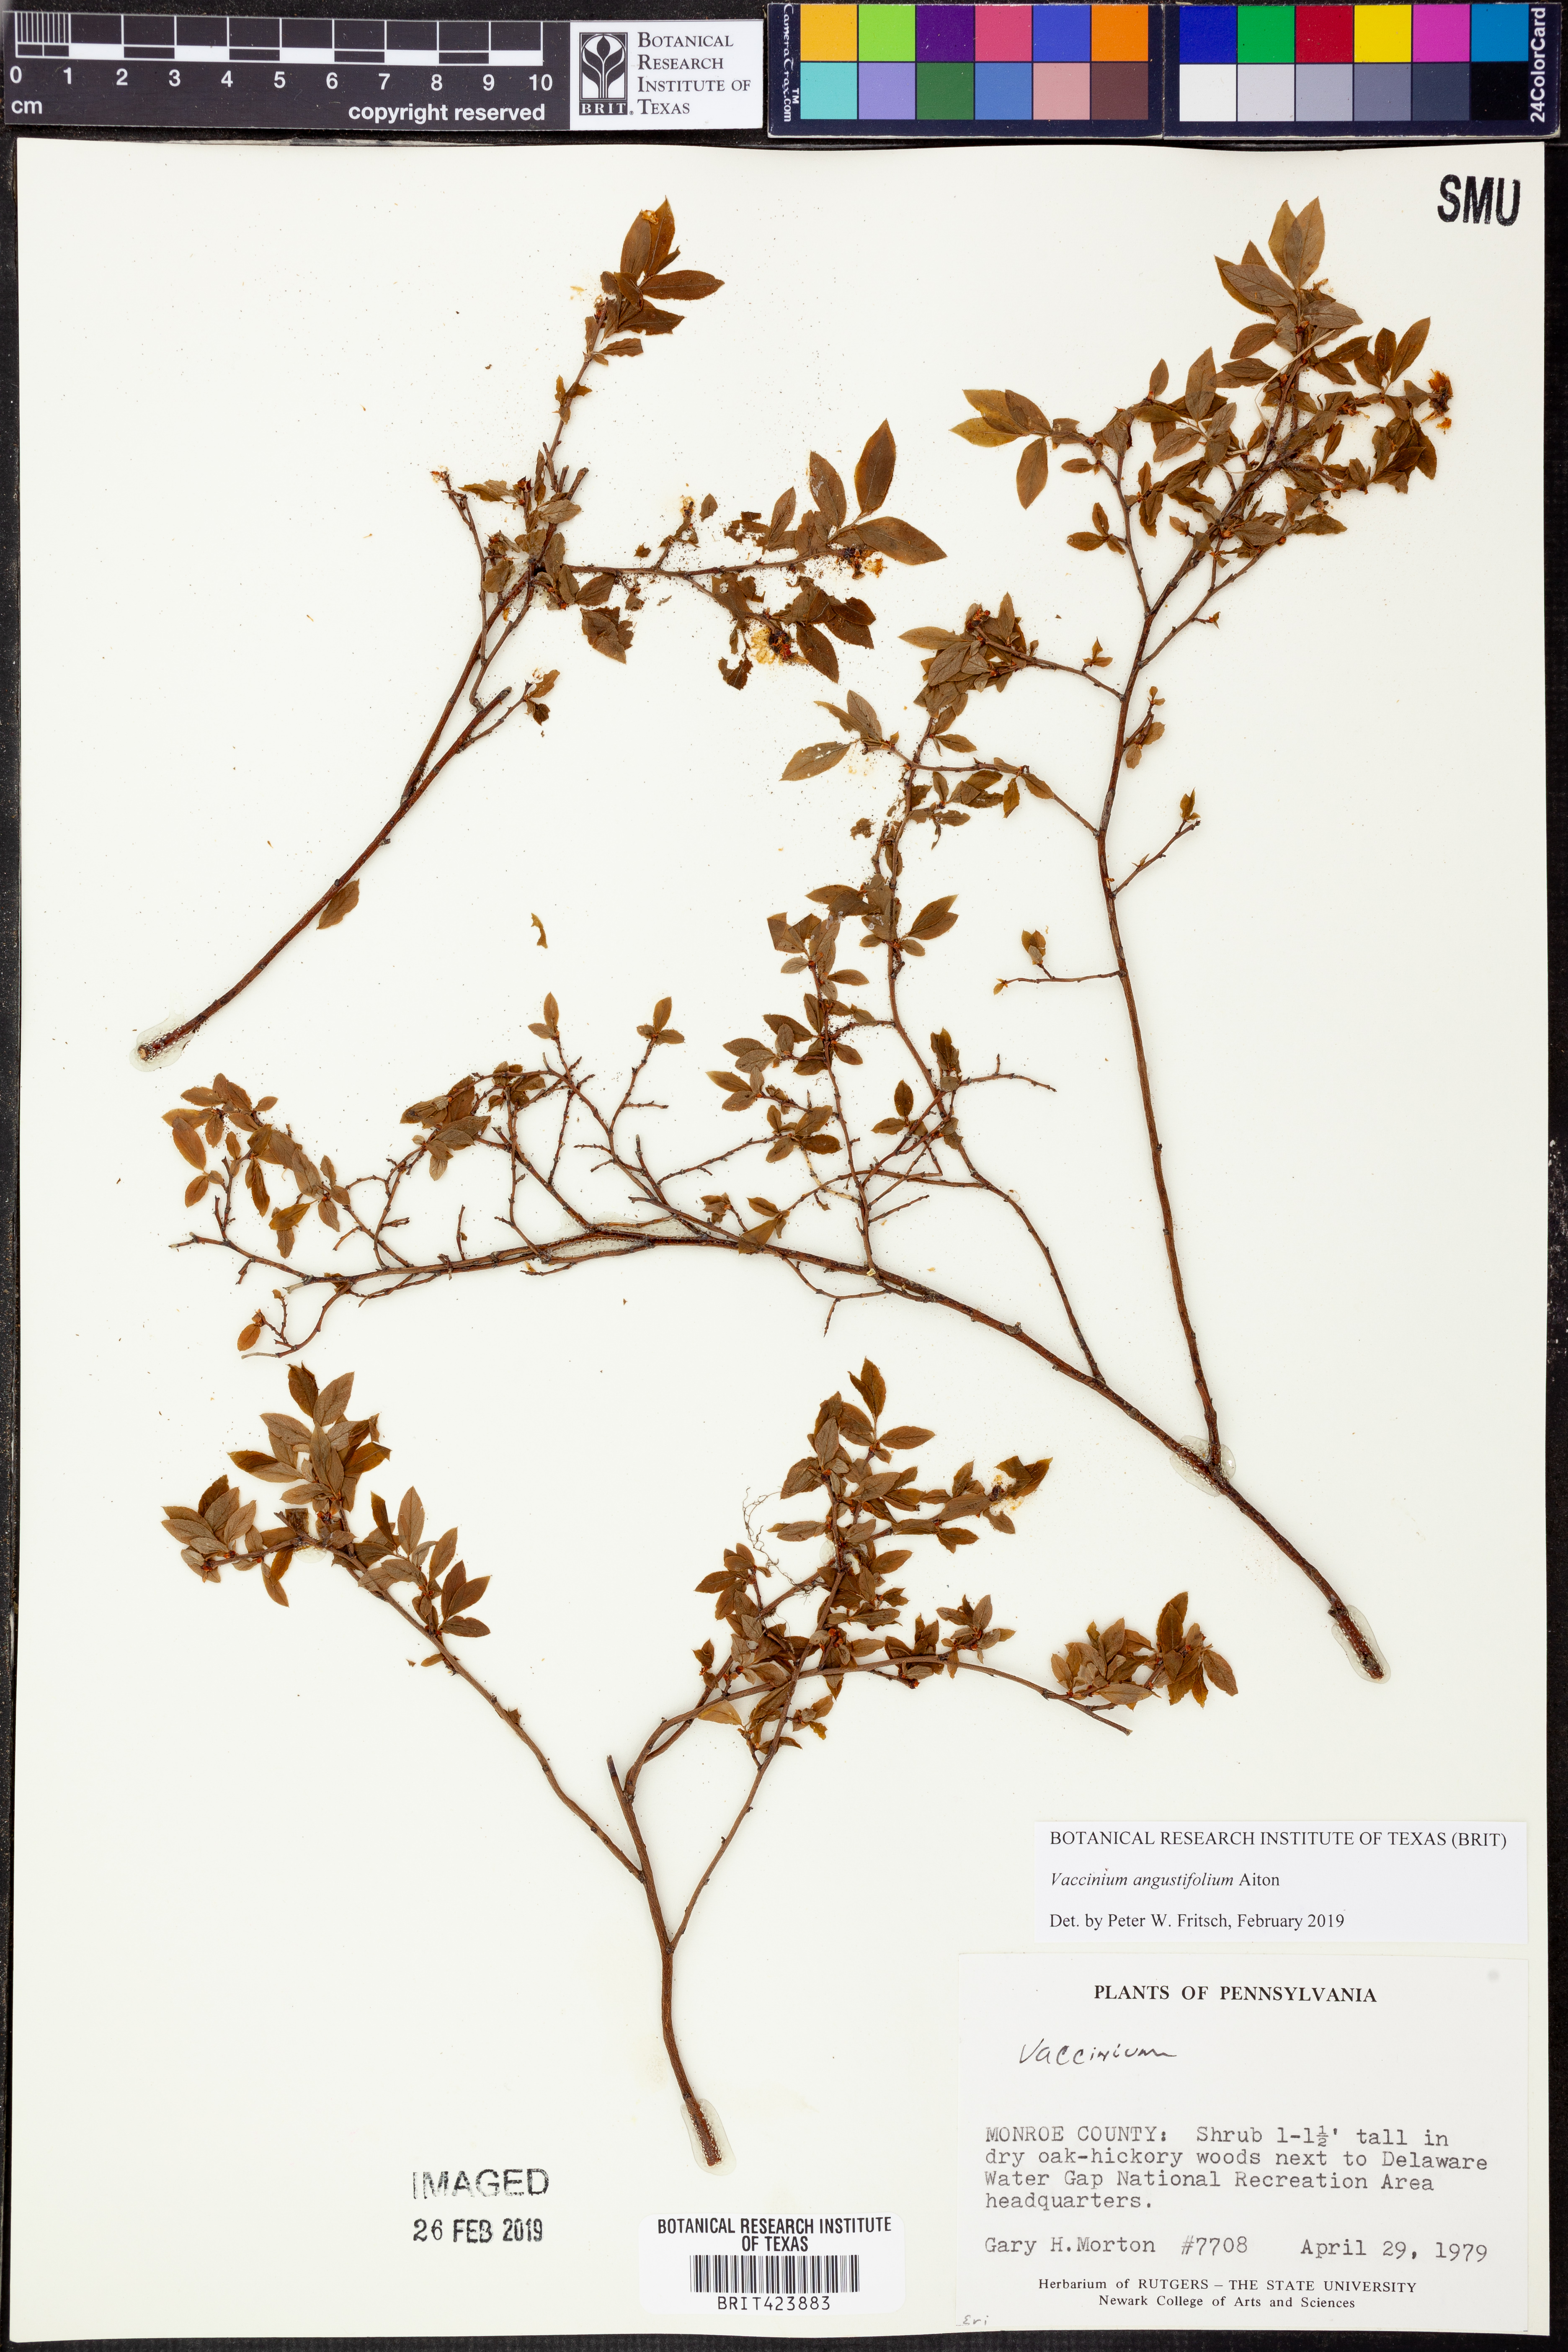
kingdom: Plantae
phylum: Tracheophyta
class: Magnoliopsida
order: Ericales
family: Ericaceae
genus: Vaccinium
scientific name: Vaccinium angustifolium
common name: Early lowbush blueberry
